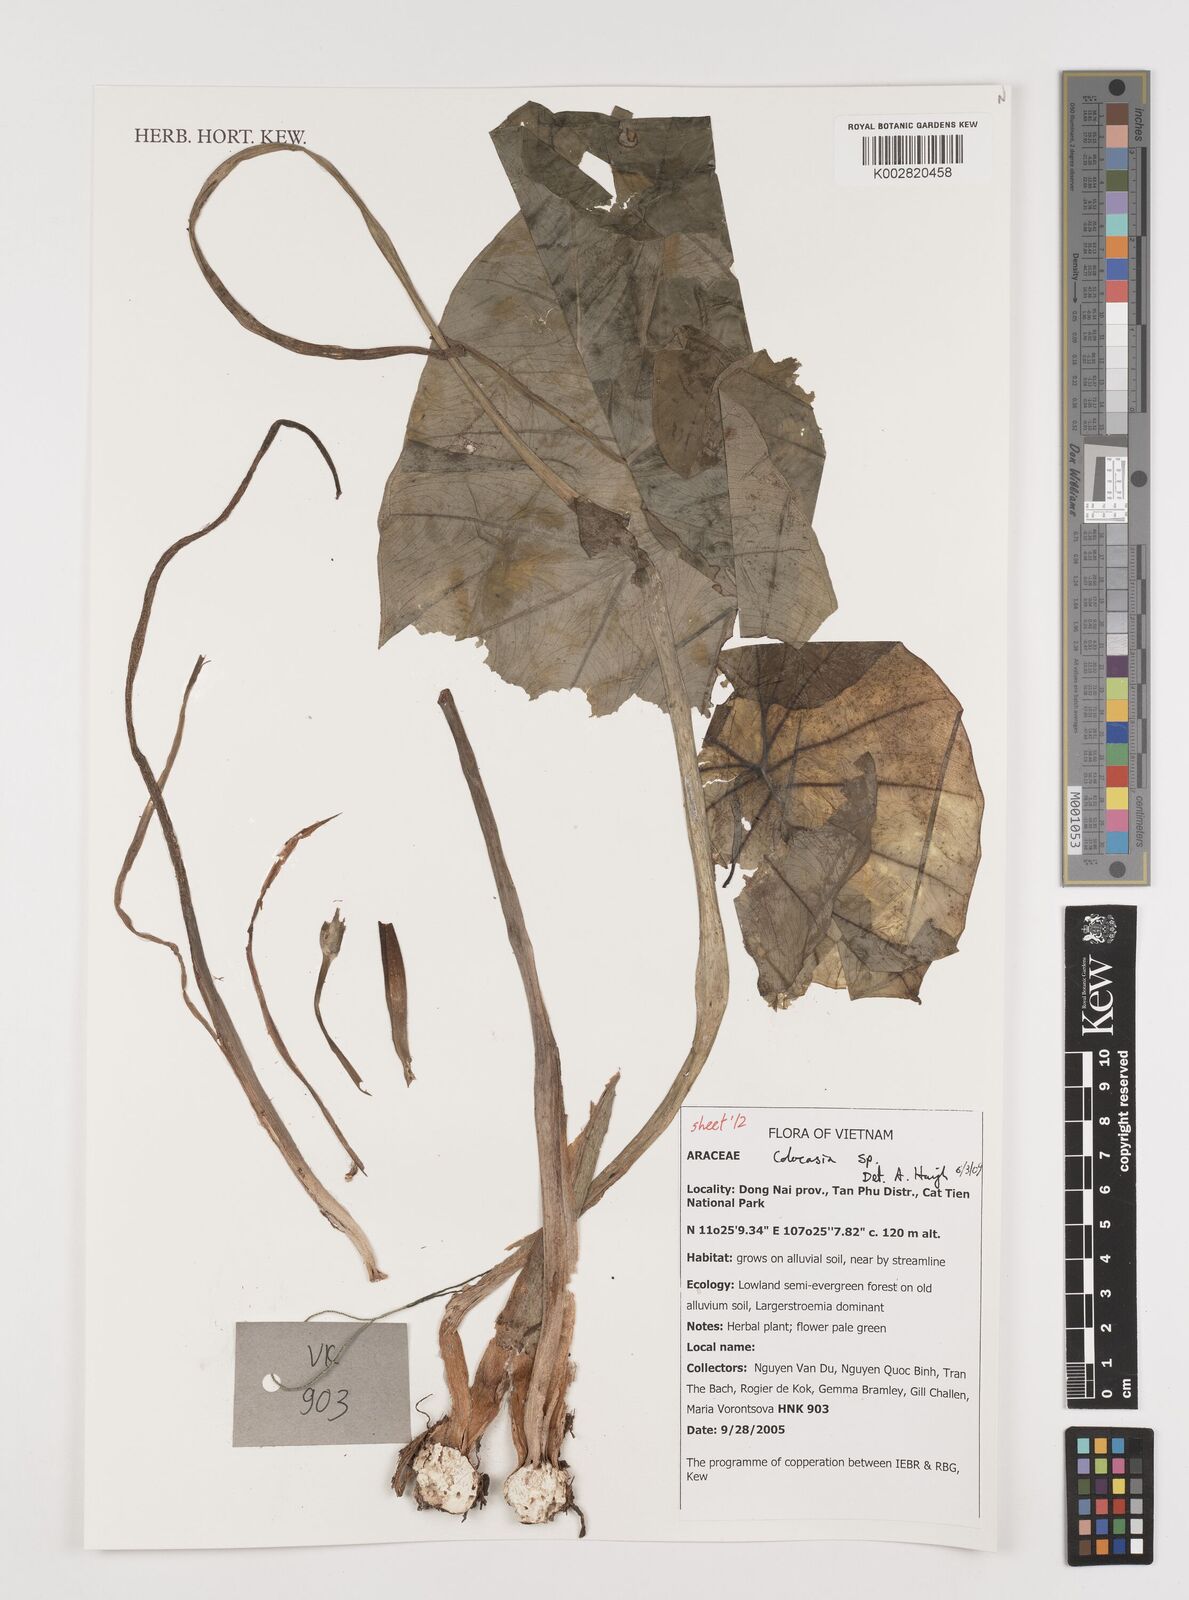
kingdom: Plantae
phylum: Tracheophyta
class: Liliopsida
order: Alismatales
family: Araceae
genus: Colocasia
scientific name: Colocasia
